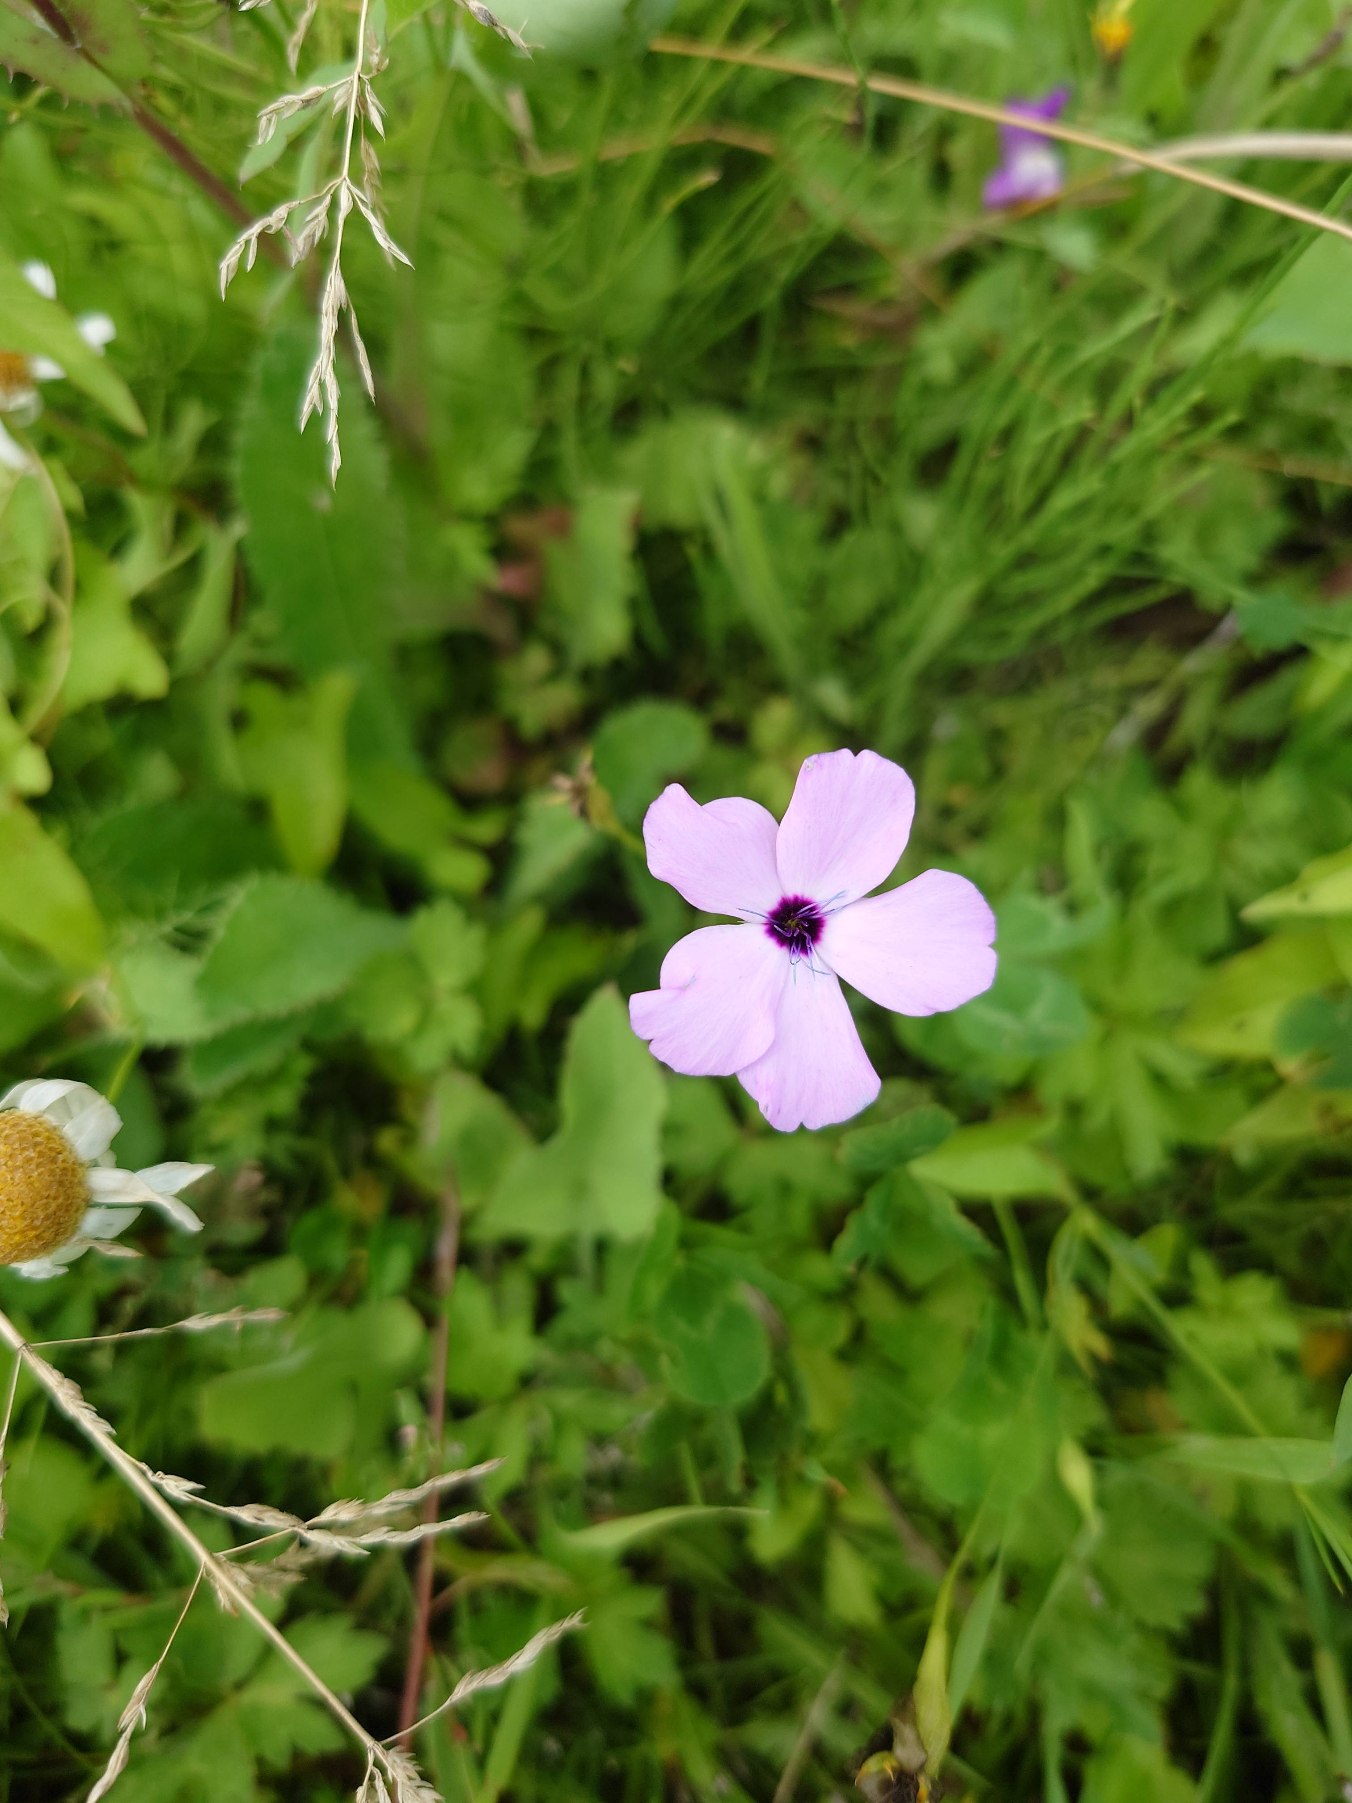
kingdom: Plantae
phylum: Tracheophyta
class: Magnoliopsida
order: Caryophyllales
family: Caryophyllaceae
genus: Eudianthe
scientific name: Eudianthe coeli-rosa
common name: Himmelrose
